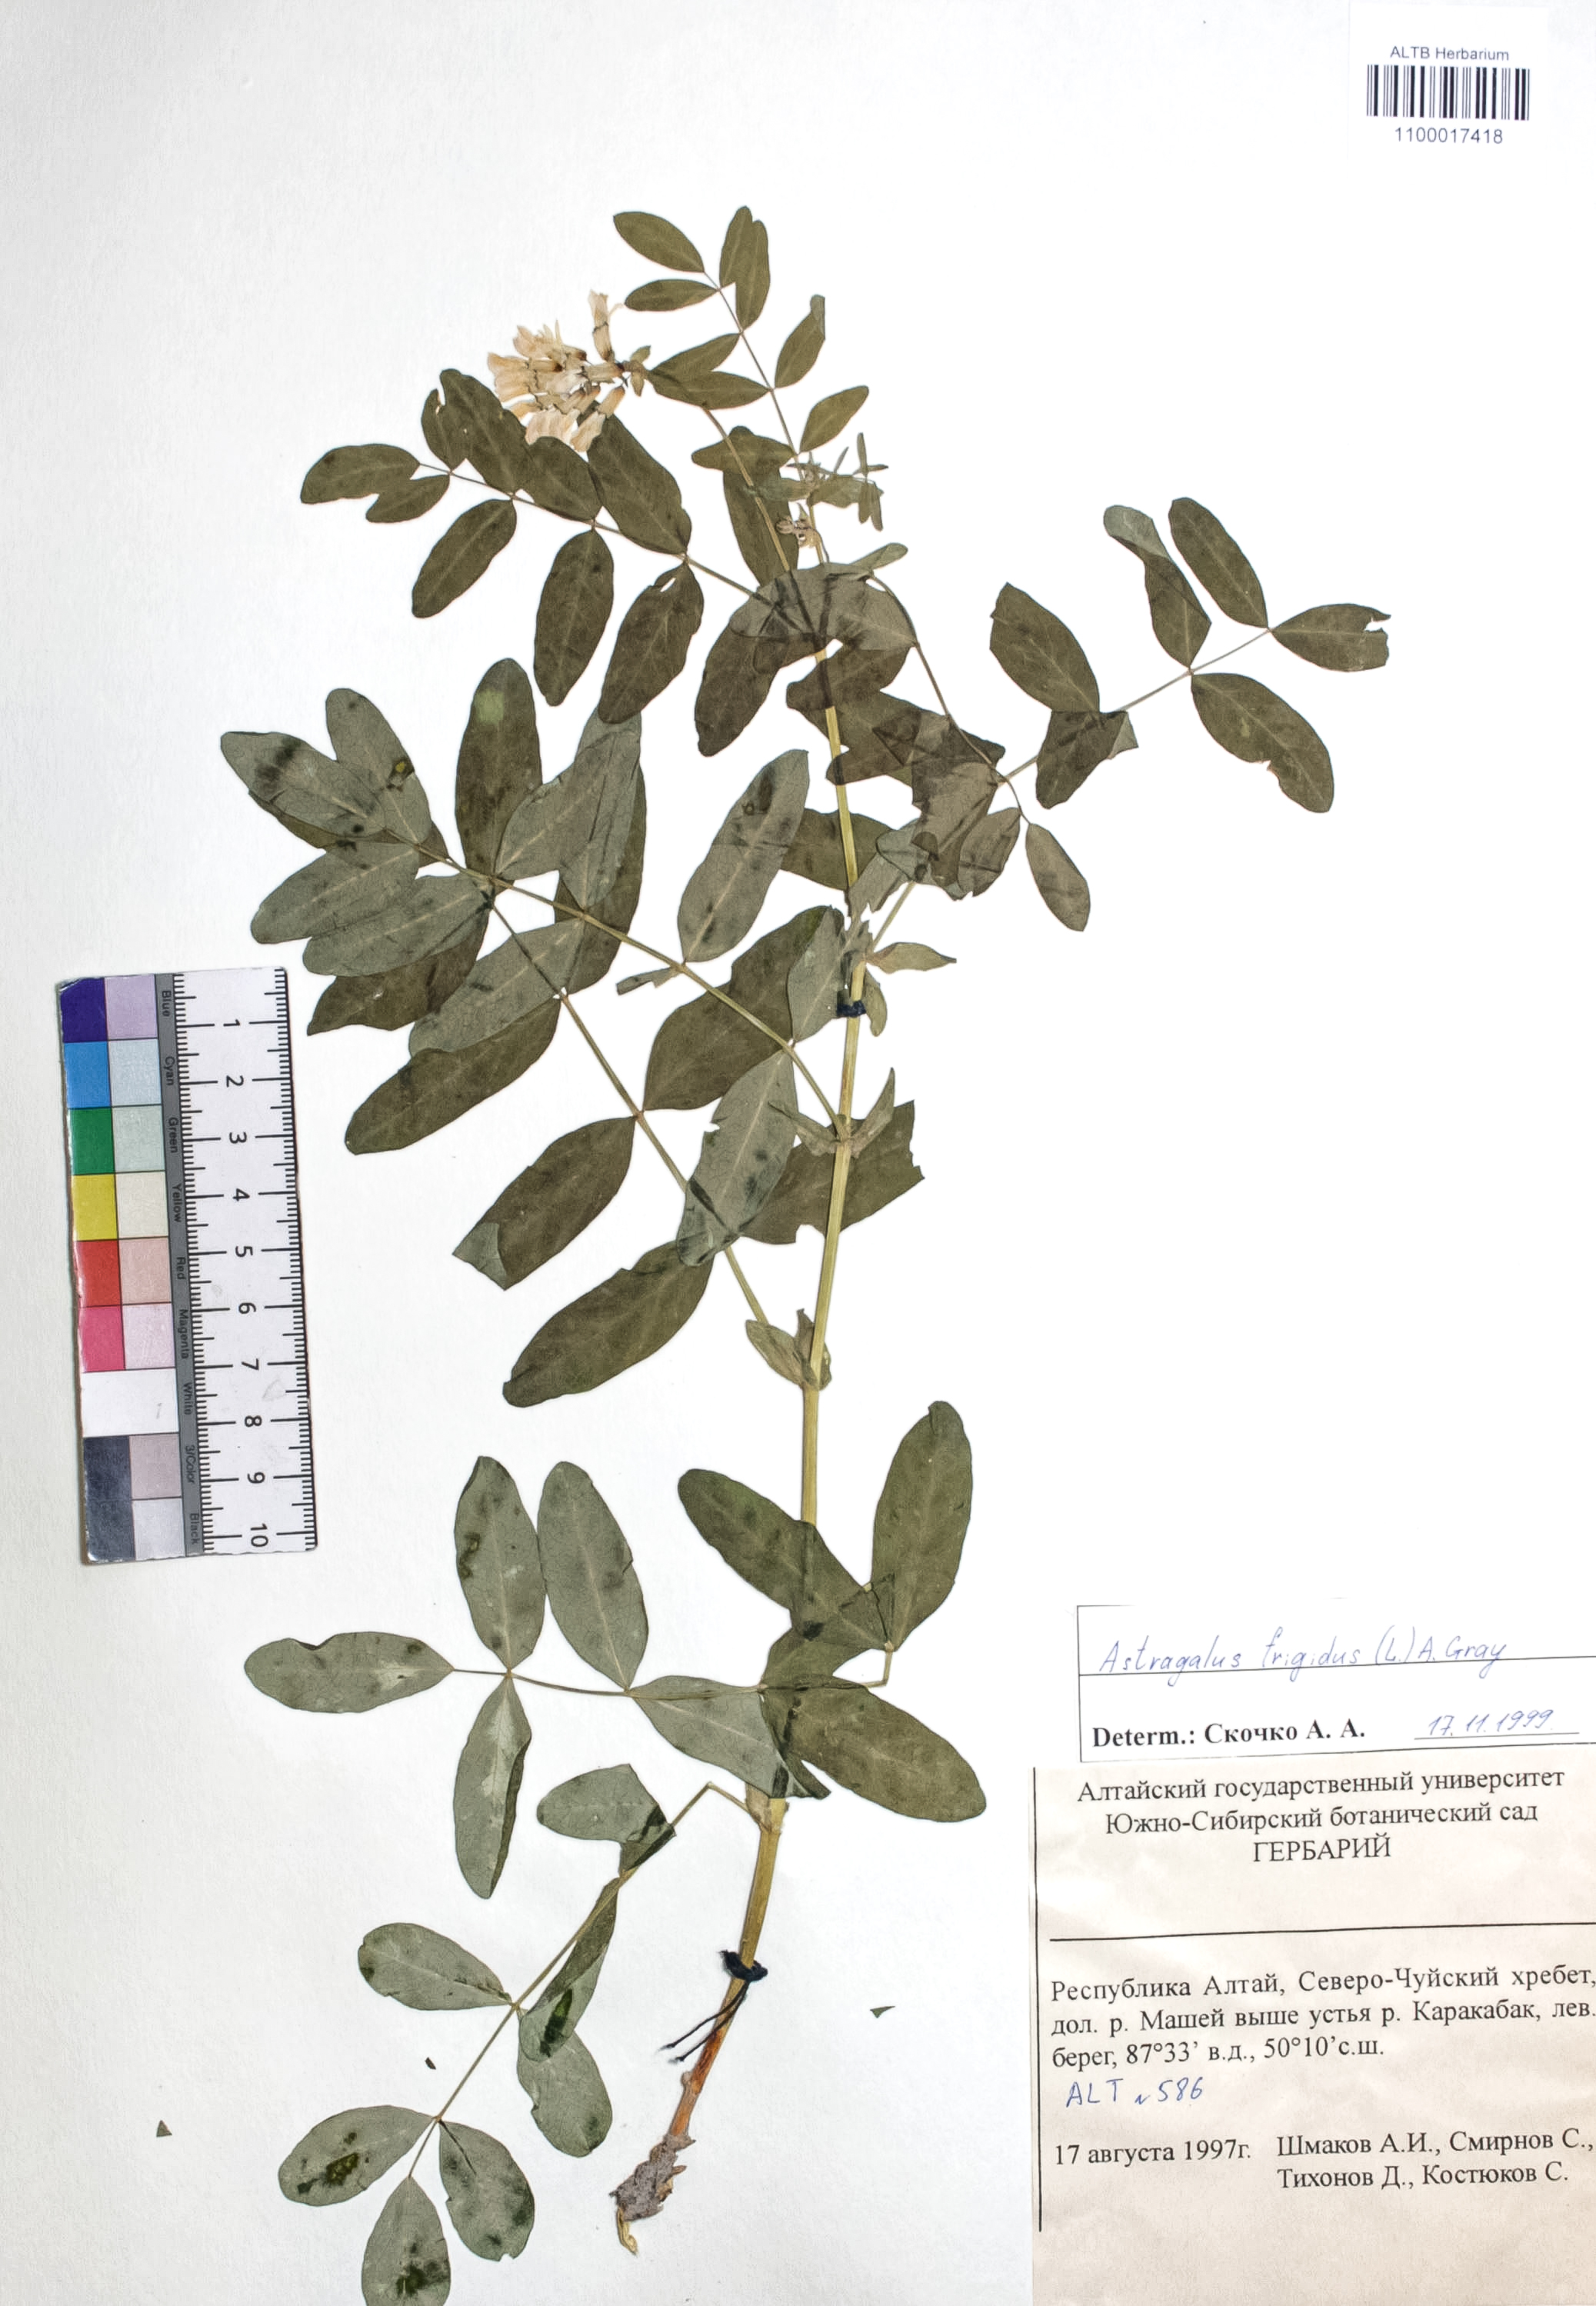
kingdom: Plantae
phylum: Tracheophyta
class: Magnoliopsida
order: Fabales
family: Fabaceae
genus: Astragalus
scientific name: Astragalus frigidus
